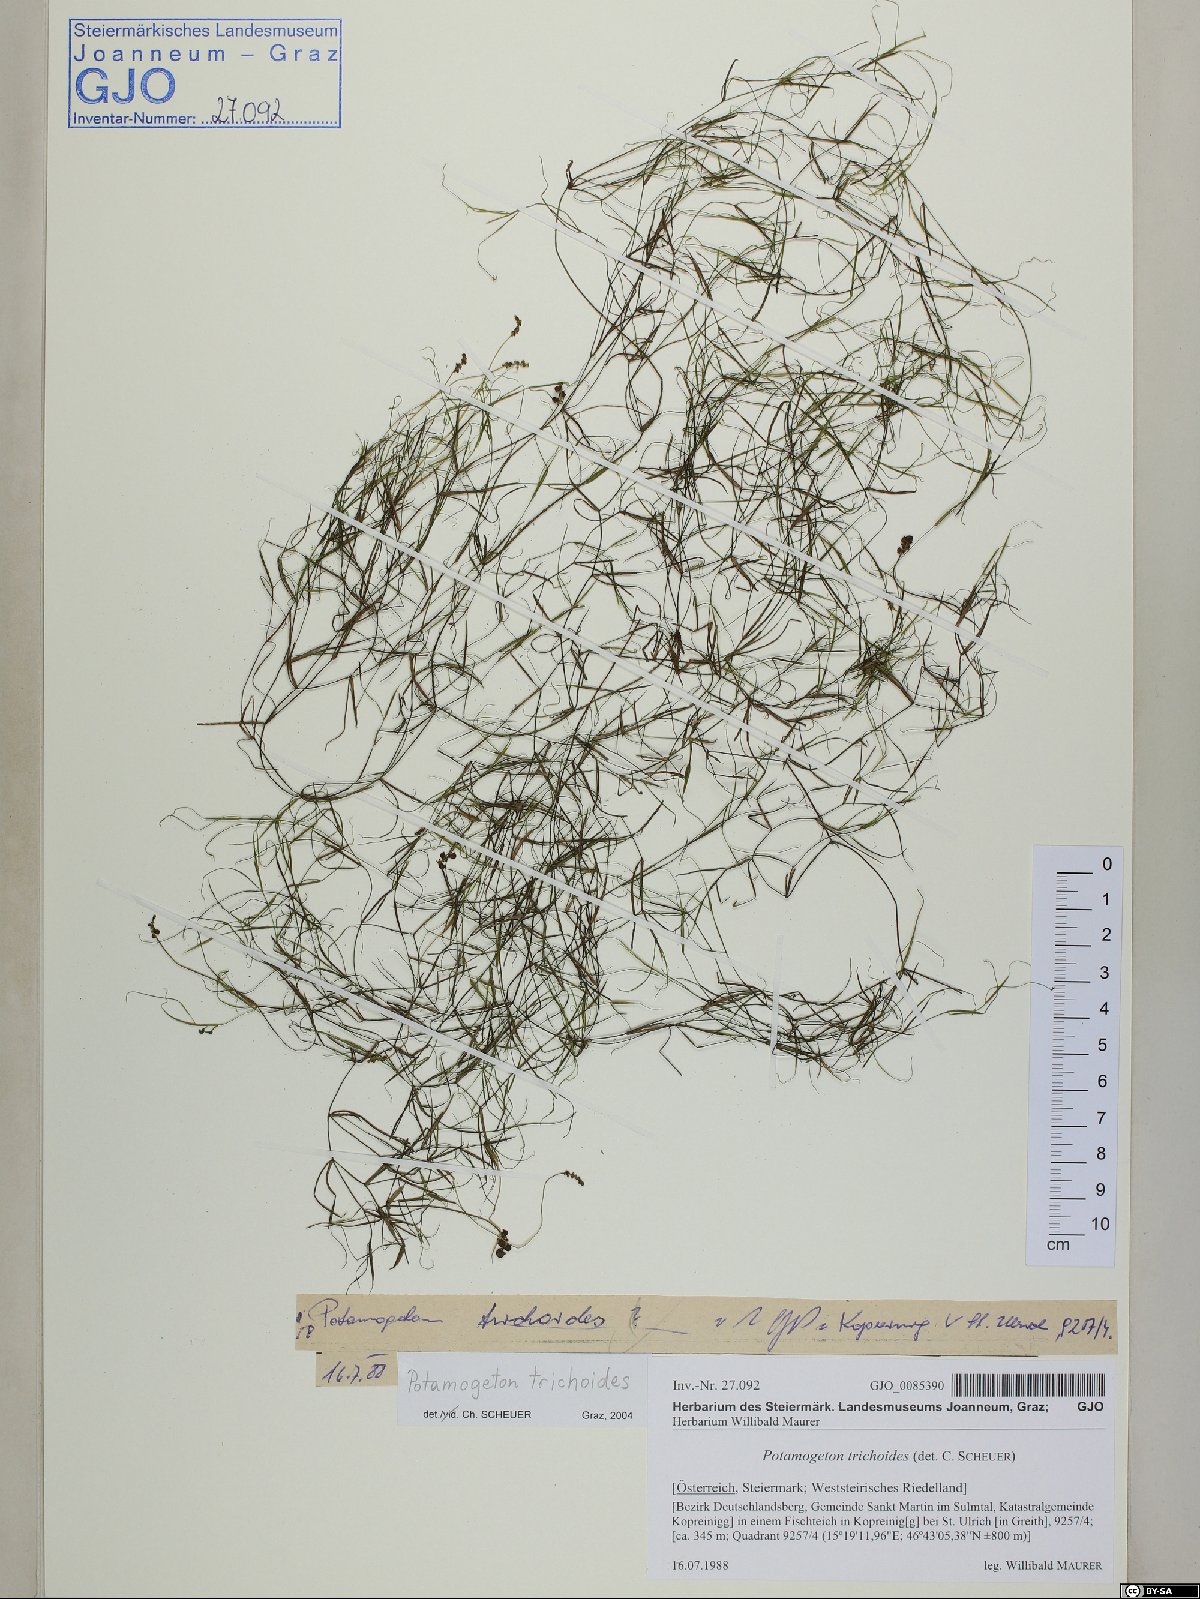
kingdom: Plantae
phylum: Tracheophyta
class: Liliopsida
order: Alismatales
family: Potamogetonaceae
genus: Potamogeton
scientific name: Potamogeton trichoides
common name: Hairlike pondweed
